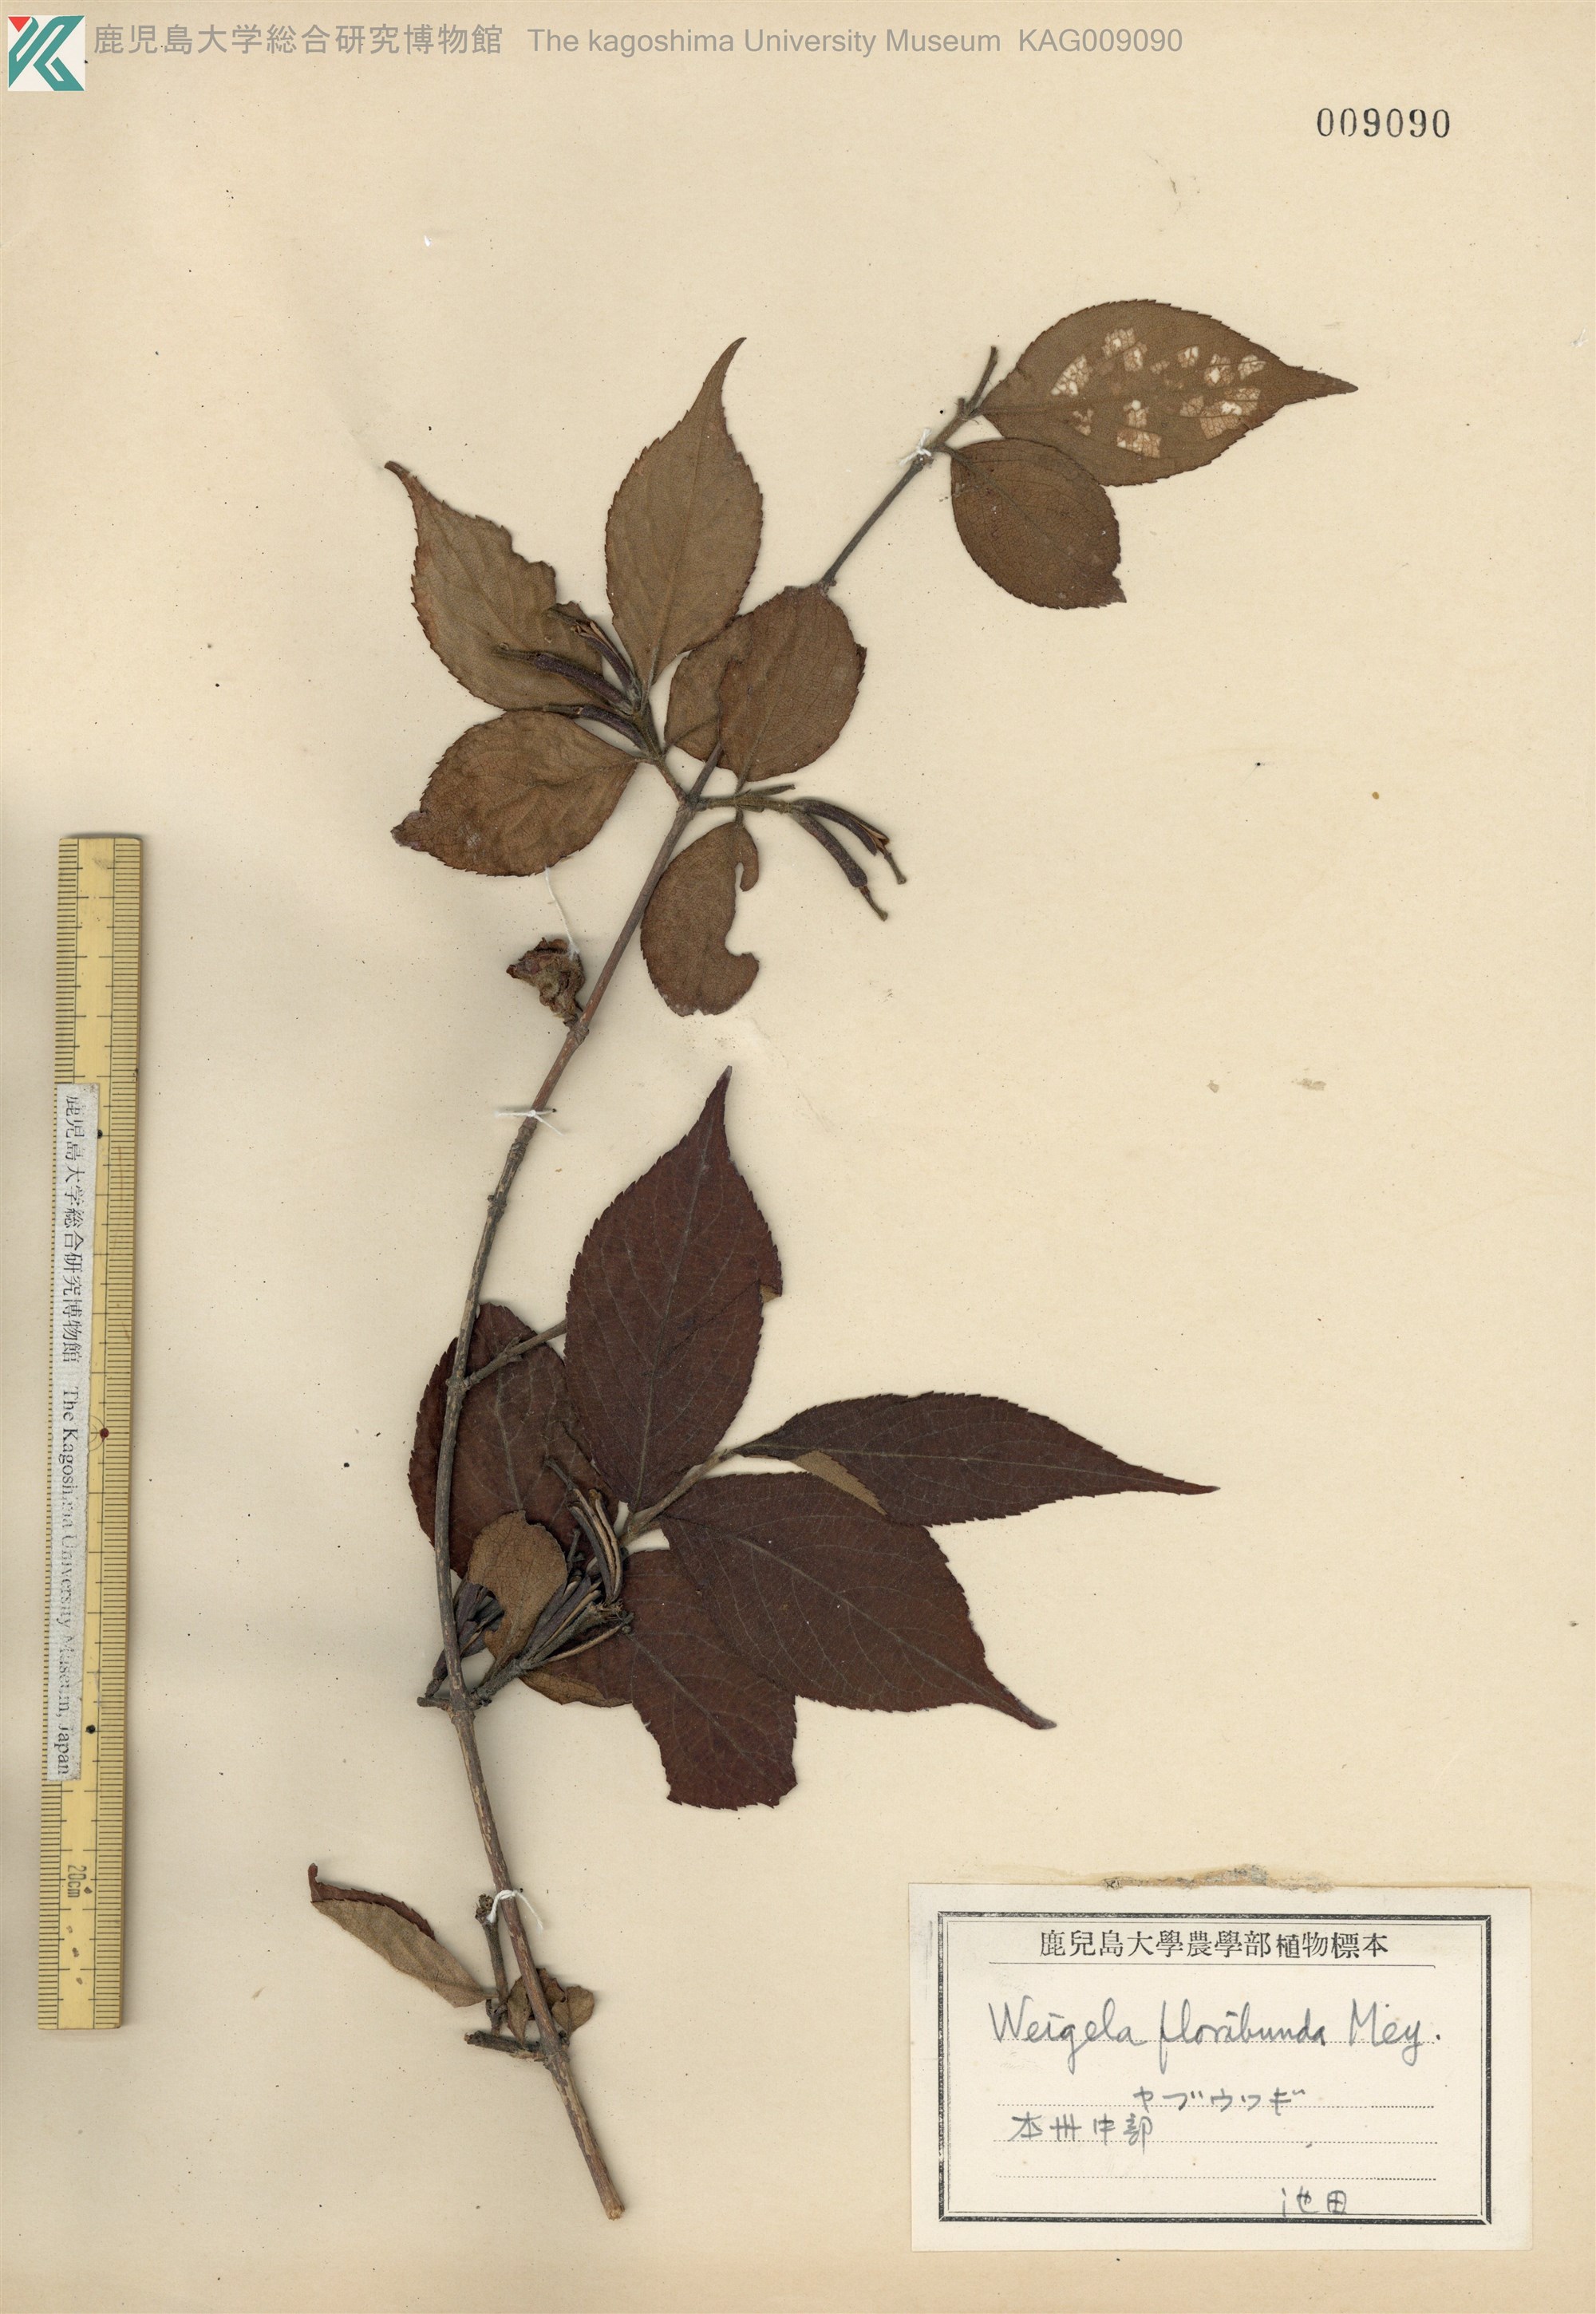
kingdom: Plantae
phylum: Tracheophyta
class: Magnoliopsida
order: Dipsacales
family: Caprifoliaceae
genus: Weigela
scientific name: Weigela floribunda
